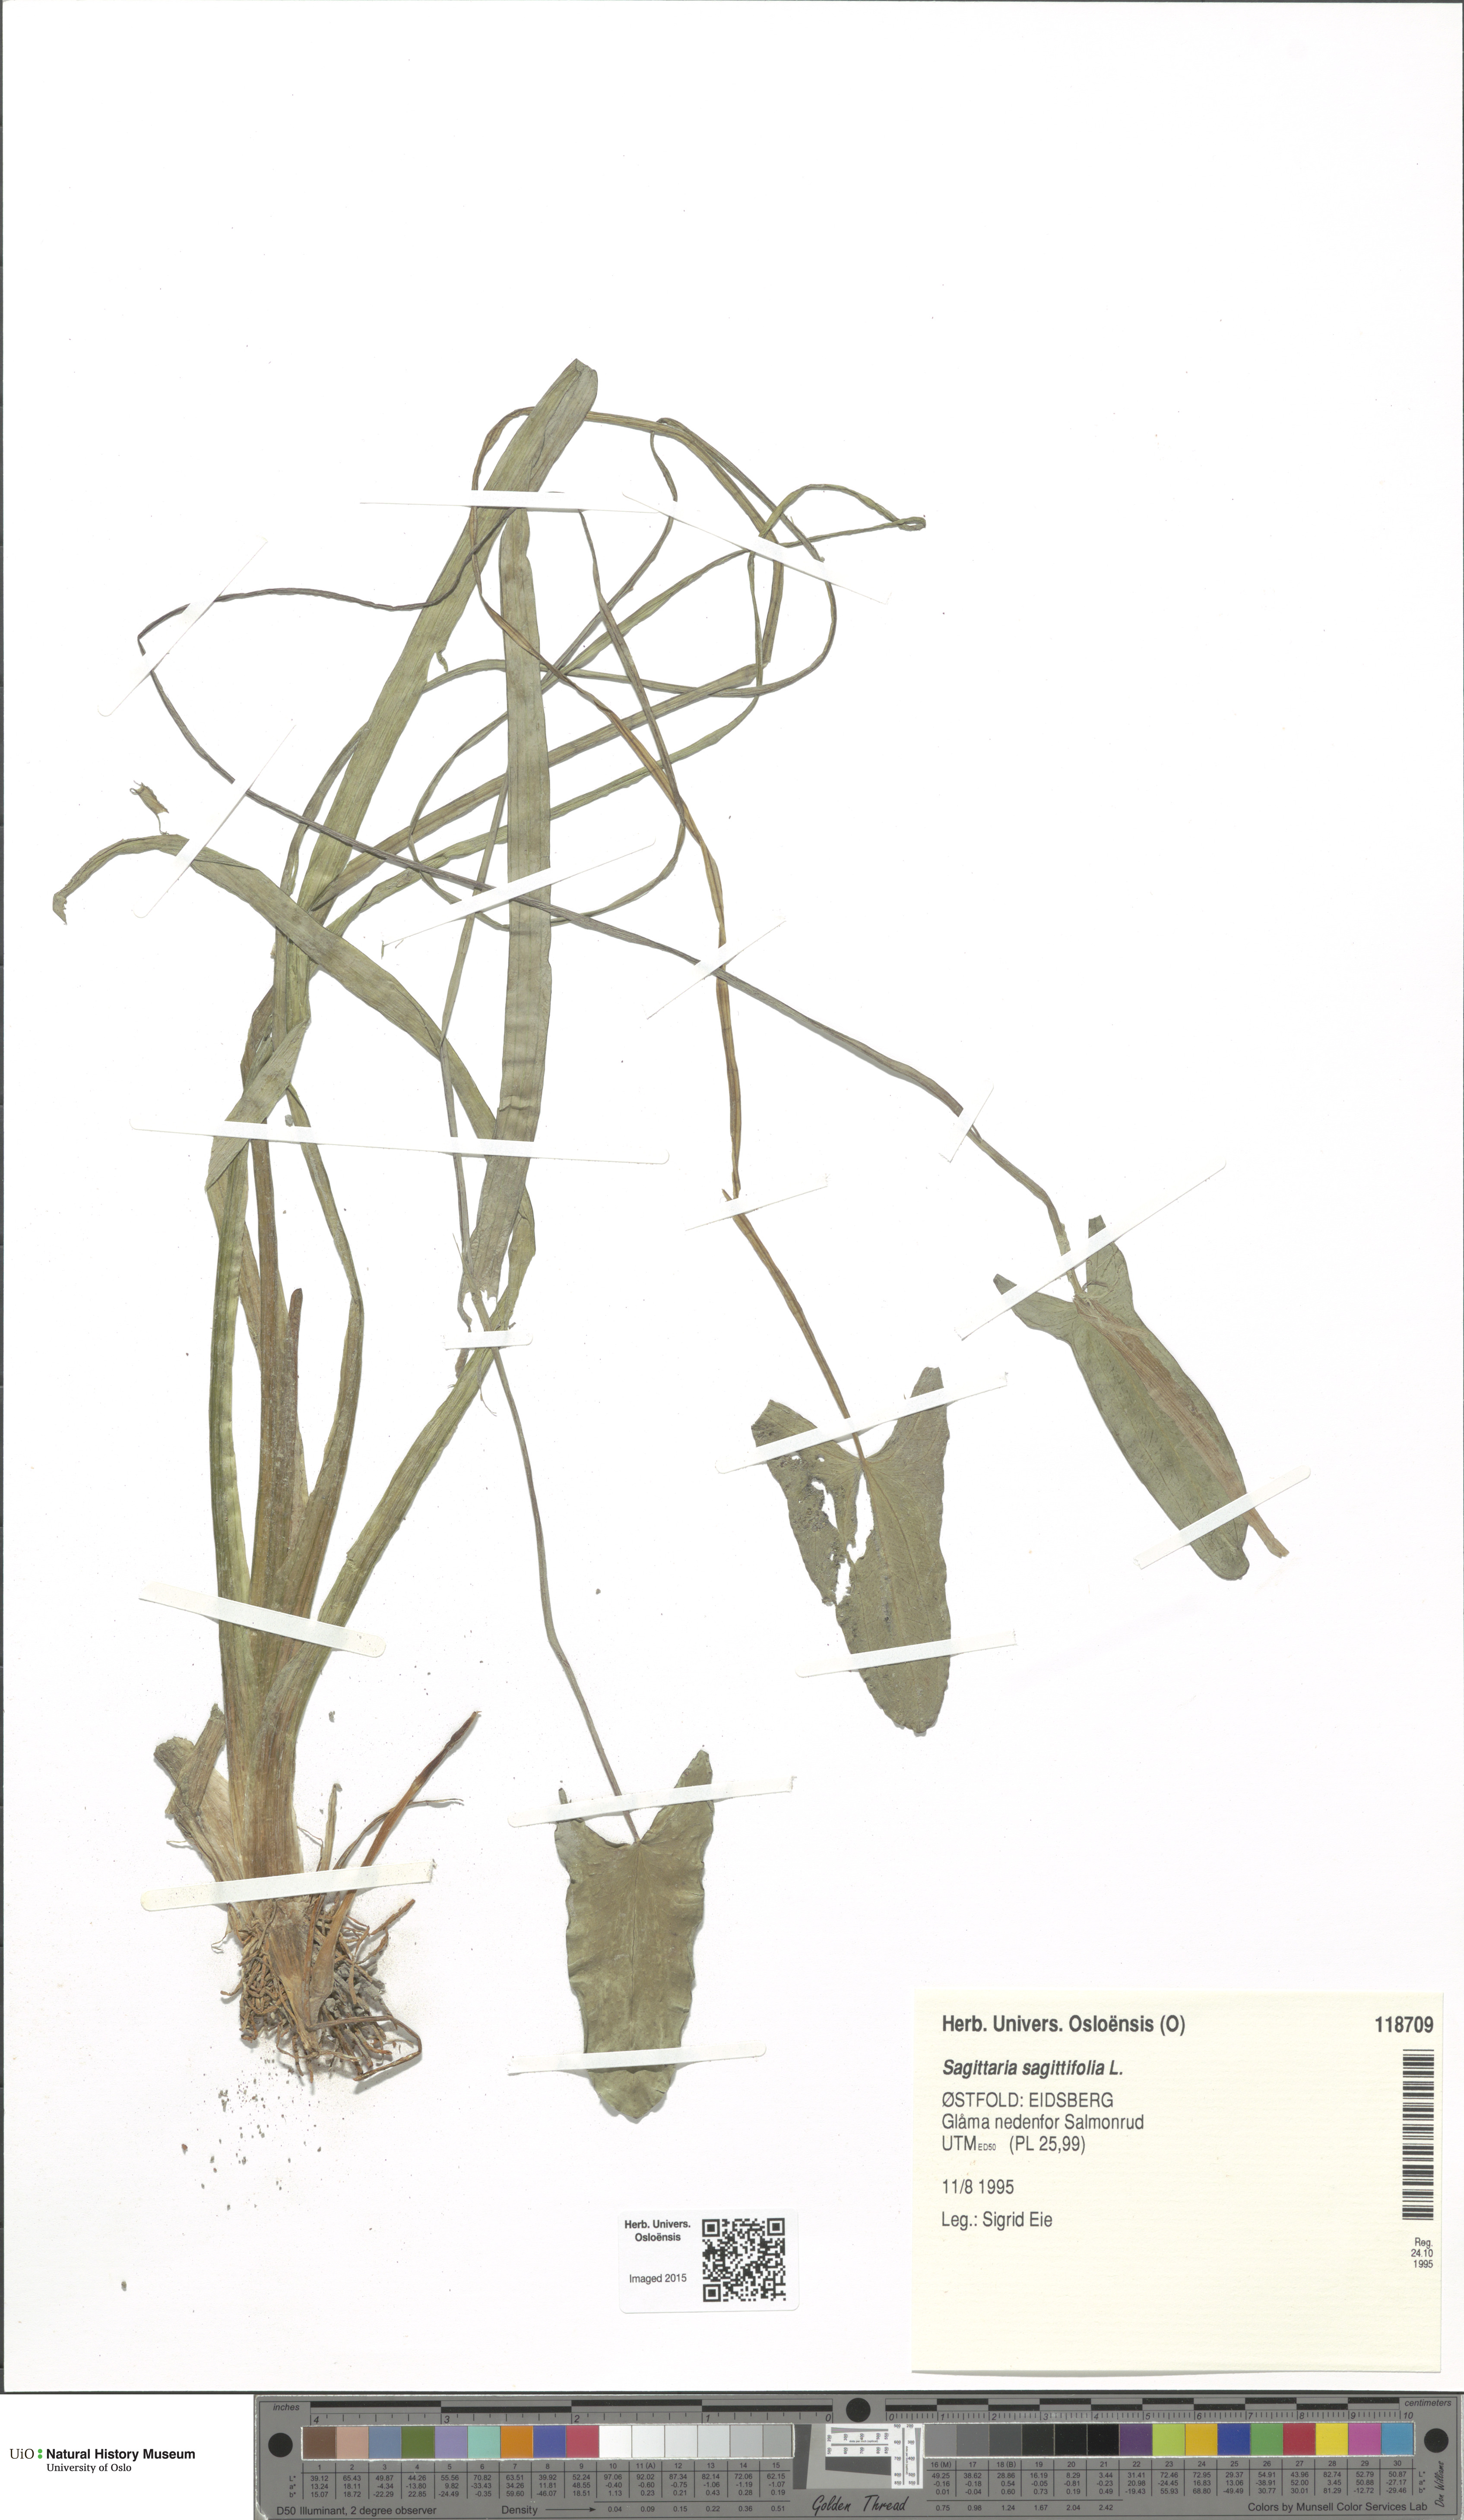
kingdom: Plantae
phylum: Tracheophyta
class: Liliopsida
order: Alismatales
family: Alismataceae
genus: Sagittaria
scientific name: Sagittaria sagittifolia
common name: Arrowhead
